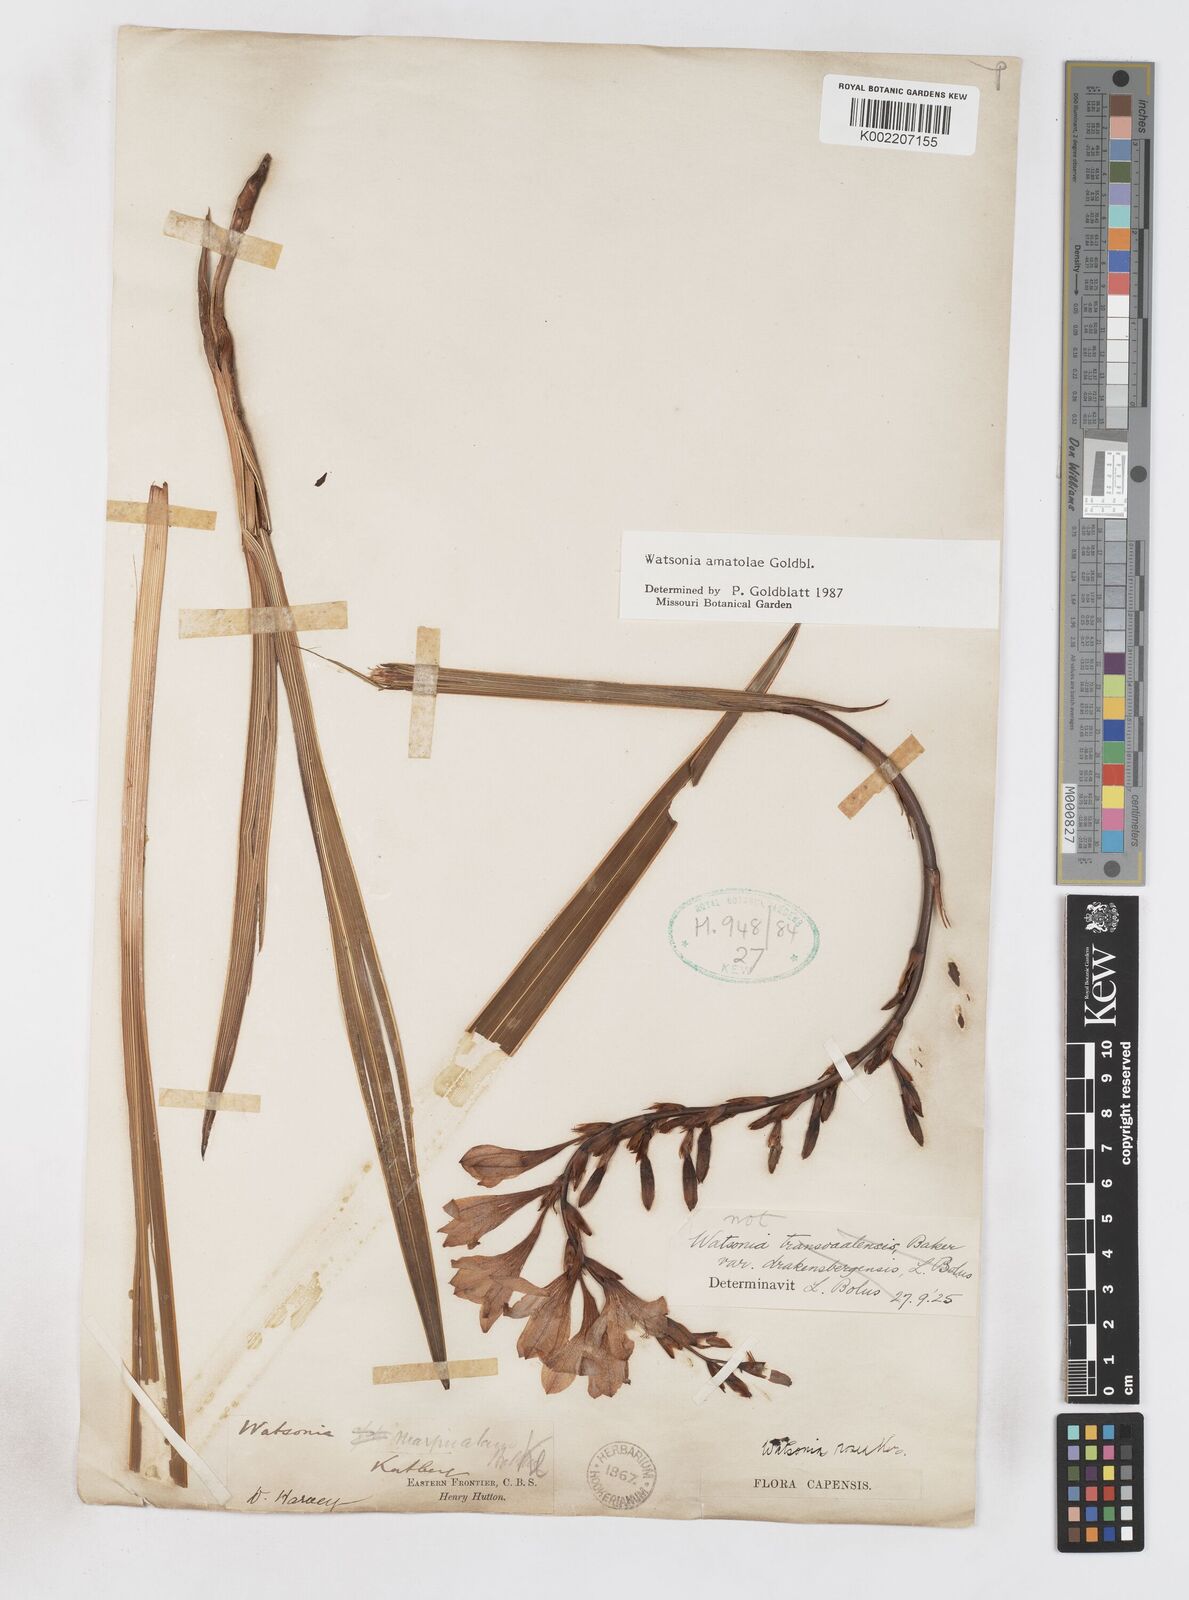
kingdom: Plantae
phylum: Tracheophyta
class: Liliopsida
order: Asparagales
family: Iridaceae
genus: Watsonia
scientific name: Watsonia amatolae
